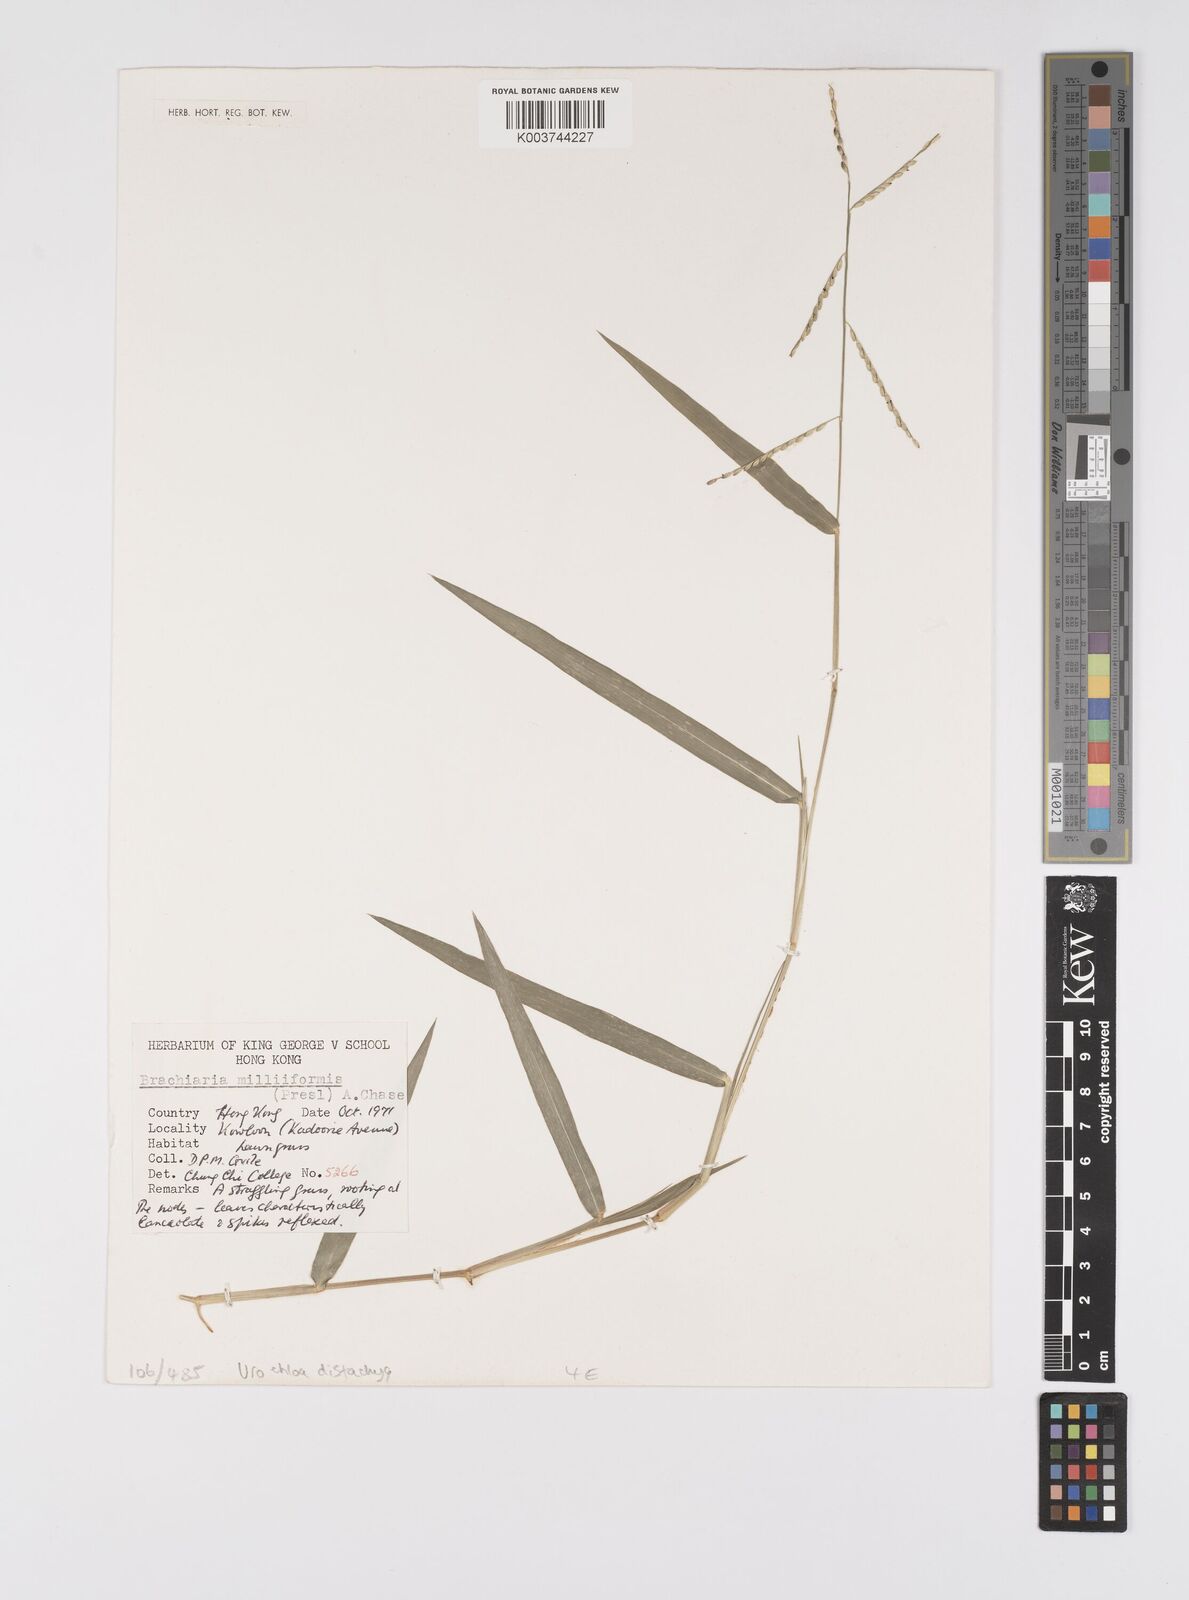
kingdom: Plantae
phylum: Tracheophyta
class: Liliopsida
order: Poales
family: Poaceae
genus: Urochloa
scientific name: Urochloa distachyos
